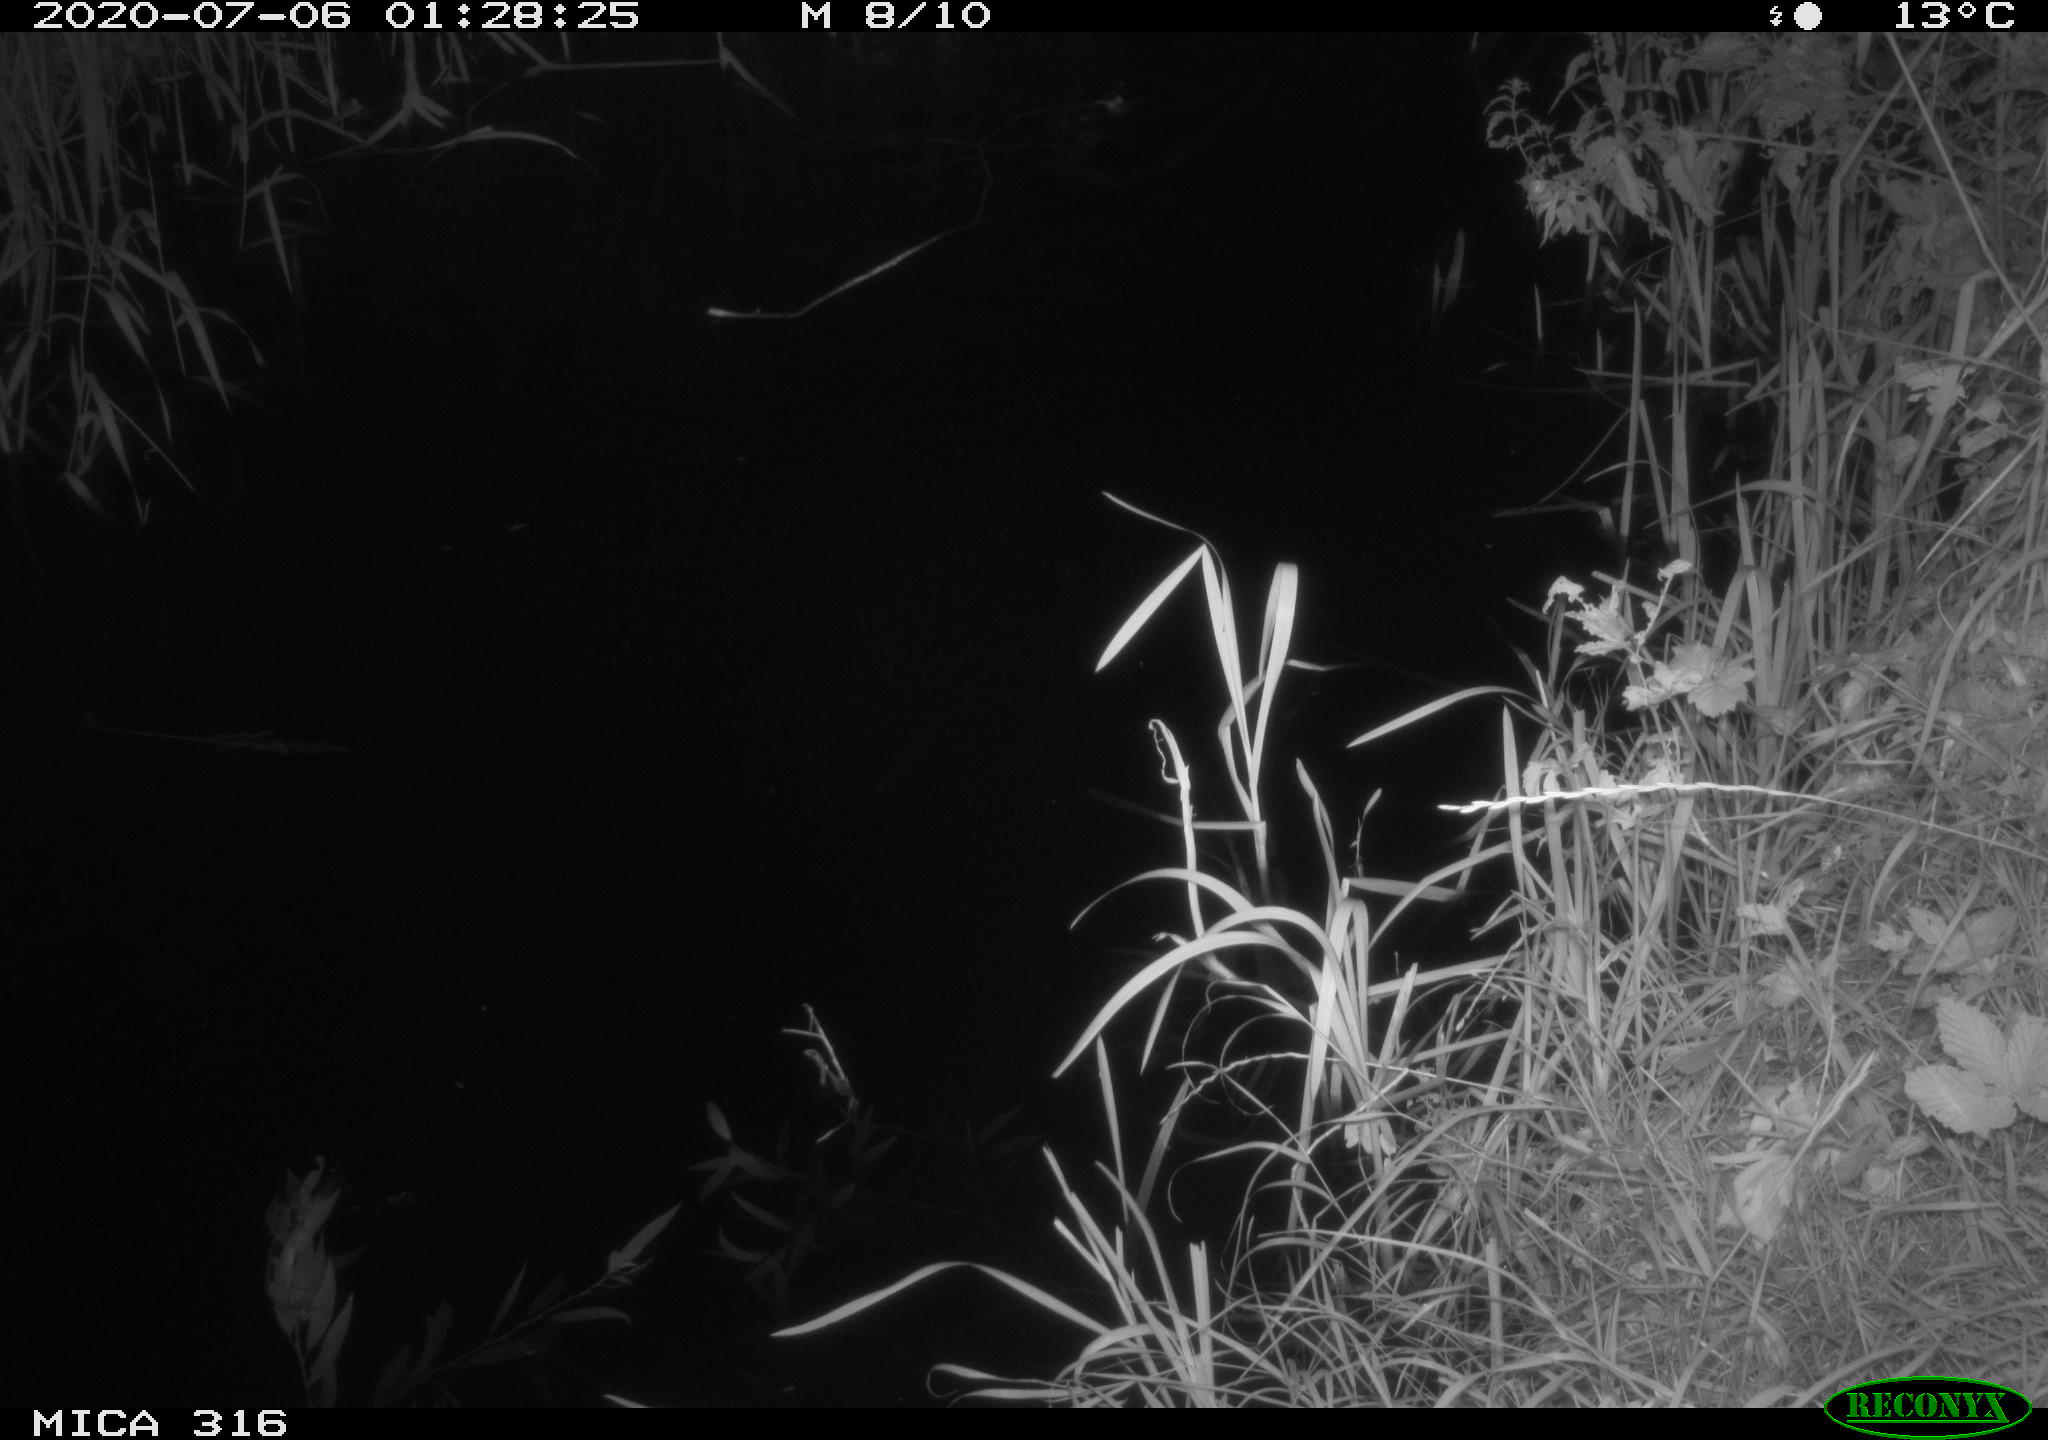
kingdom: Animalia
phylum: Chordata
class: Aves
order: Anseriformes
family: Anatidae
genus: Anas
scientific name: Anas platyrhynchos
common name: Mallard
